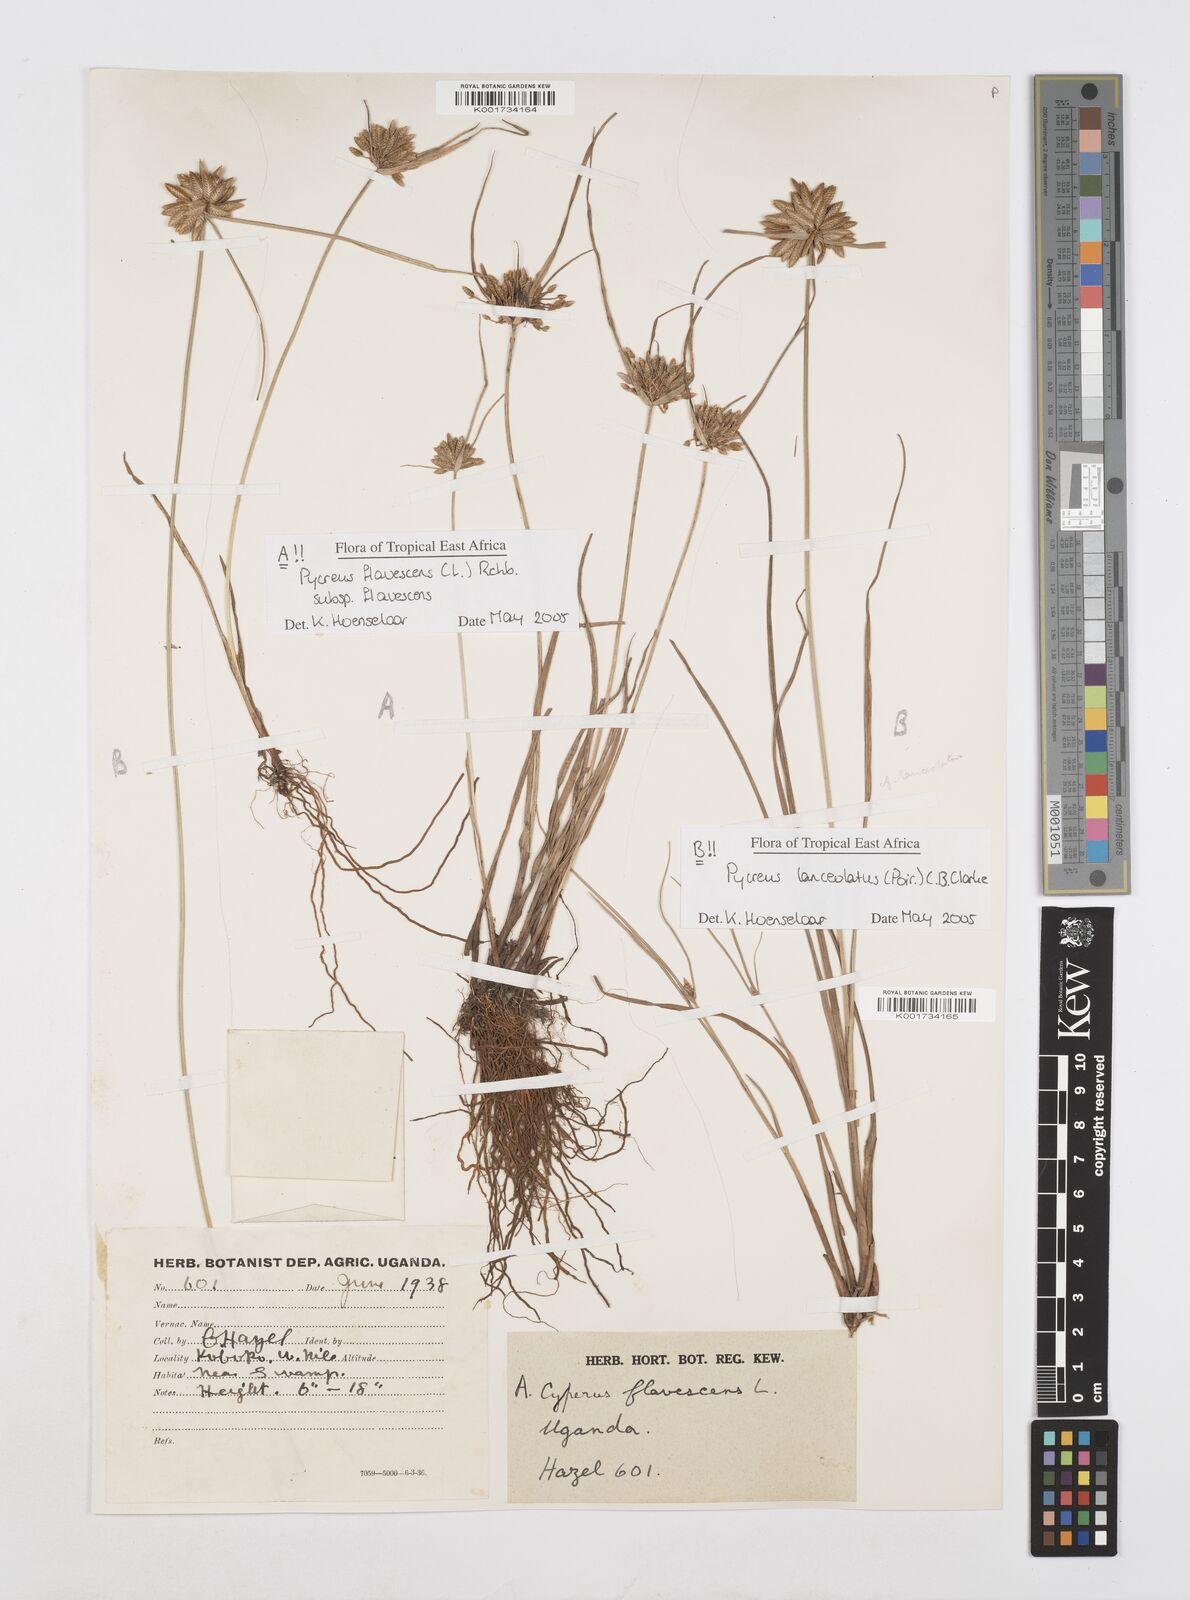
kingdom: Plantae
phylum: Tracheophyta
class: Liliopsida
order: Poales
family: Cyperaceae
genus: Cyperus
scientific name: Cyperus flavescens
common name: Yellow galingale
